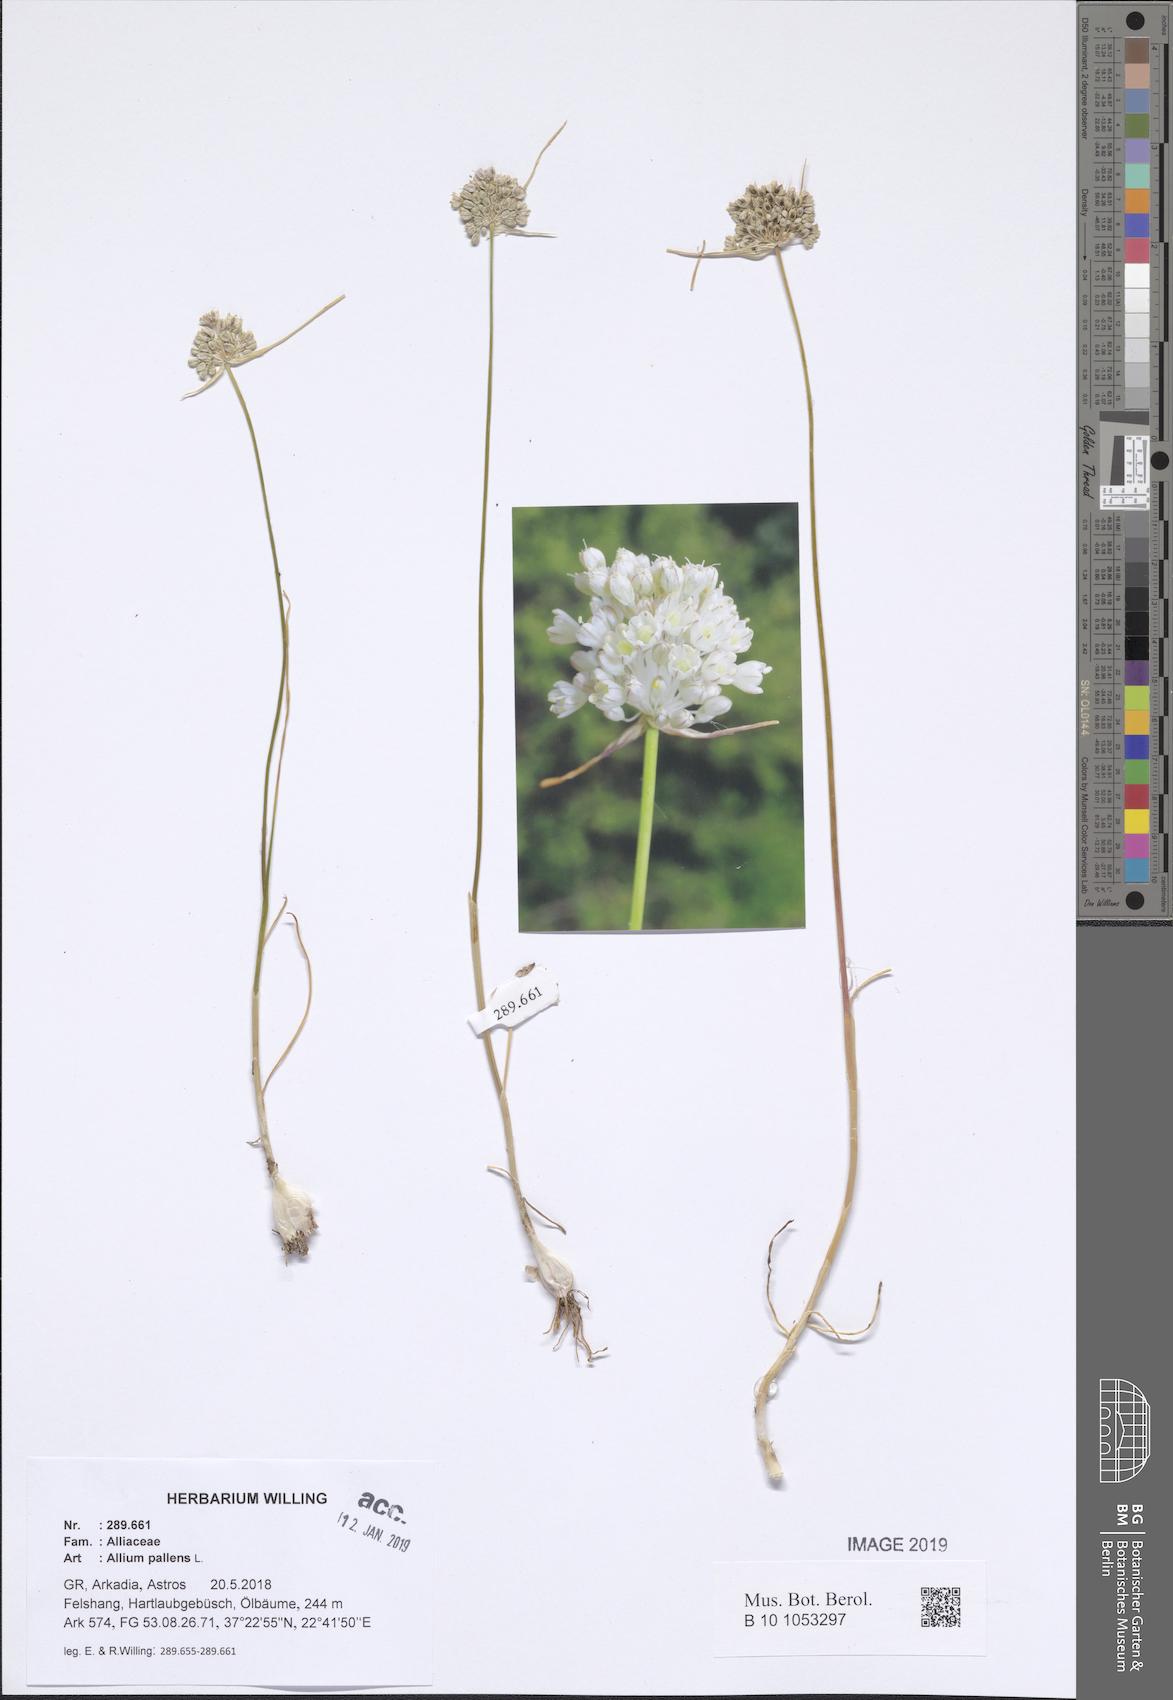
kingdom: Plantae
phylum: Tracheophyta
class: Liliopsida
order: Asparagales
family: Amaryllidaceae
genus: Allium
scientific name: Allium pallens
